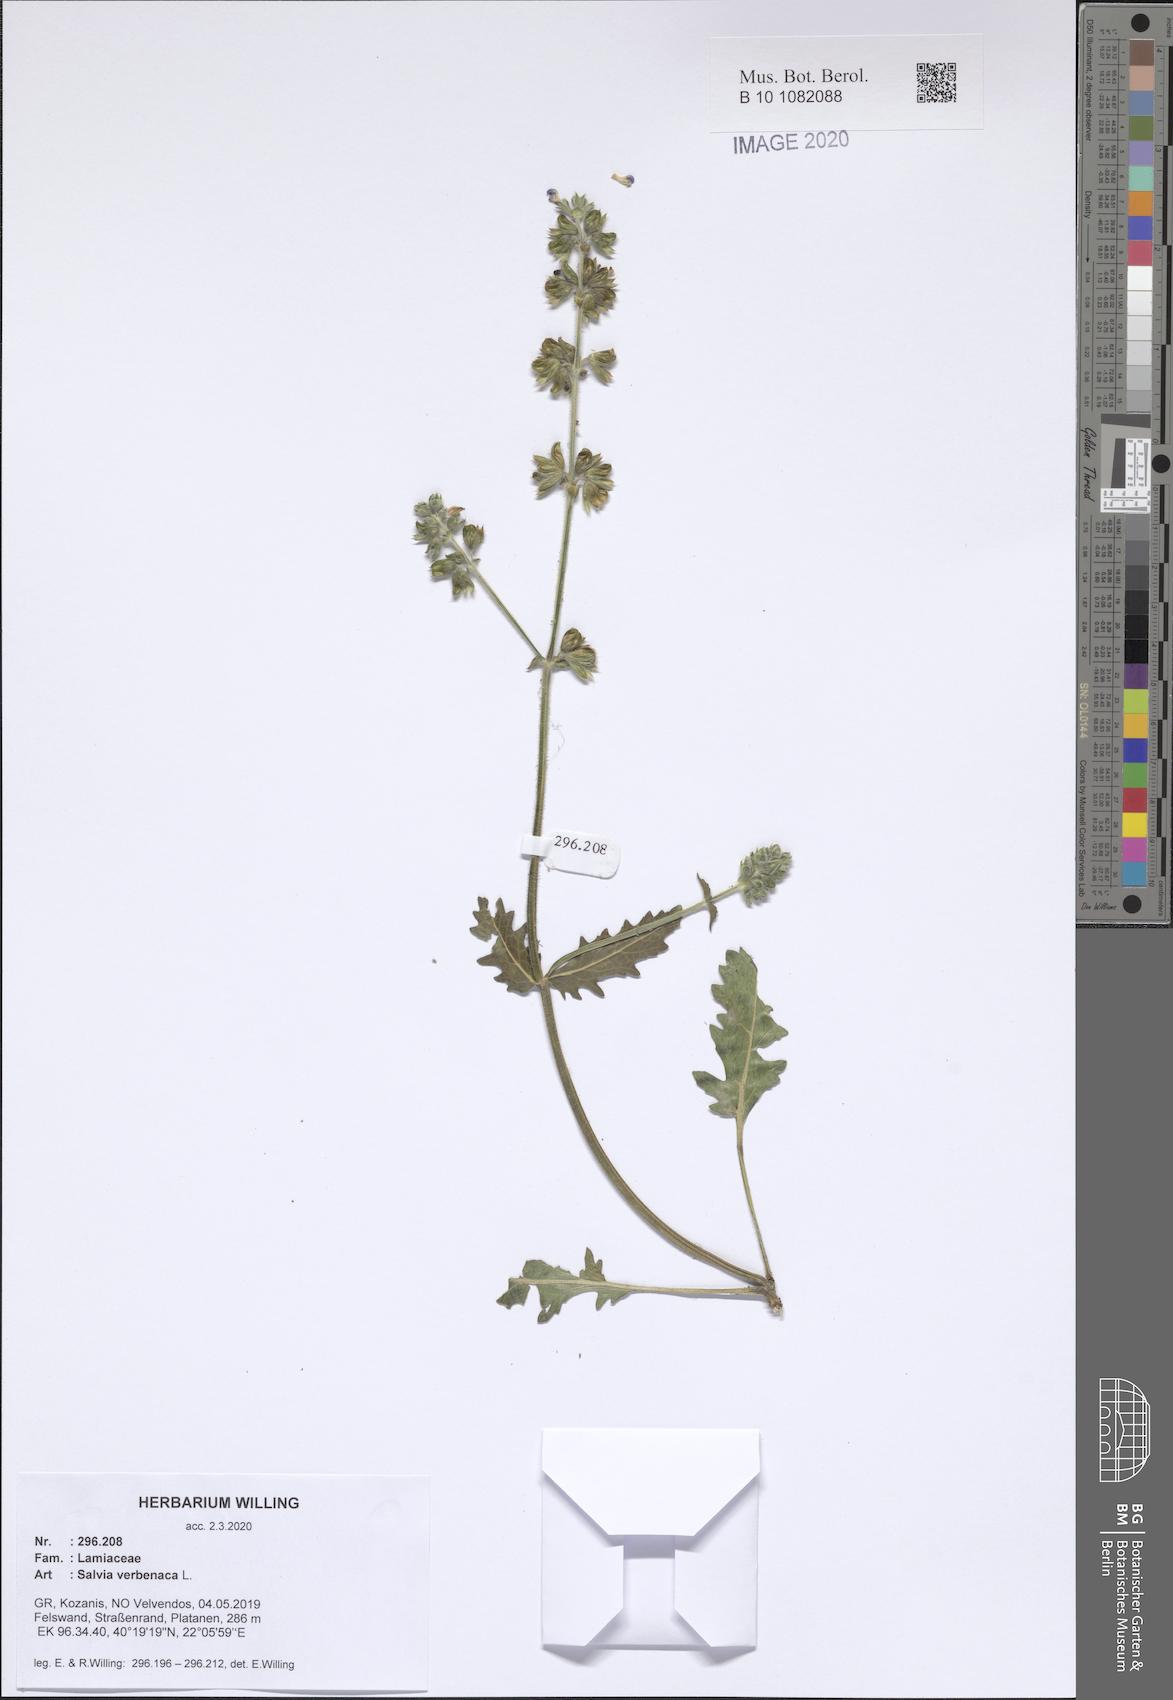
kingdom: Plantae
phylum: Tracheophyta
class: Magnoliopsida
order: Lamiales
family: Lamiaceae
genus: Salvia
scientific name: Salvia verbenaca
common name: Wild clary
